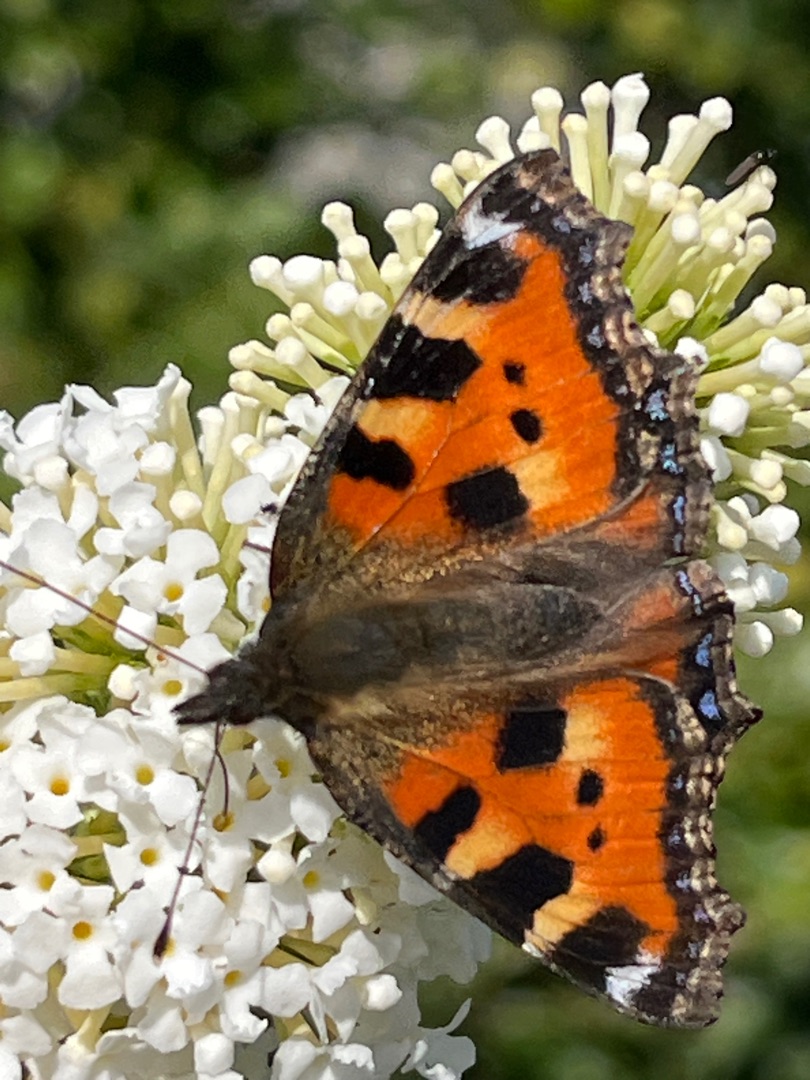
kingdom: Animalia
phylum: Arthropoda
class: Insecta
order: Lepidoptera
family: Nymphalidae
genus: Aglais
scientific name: Aglais urticae
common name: Nældens takvinge
